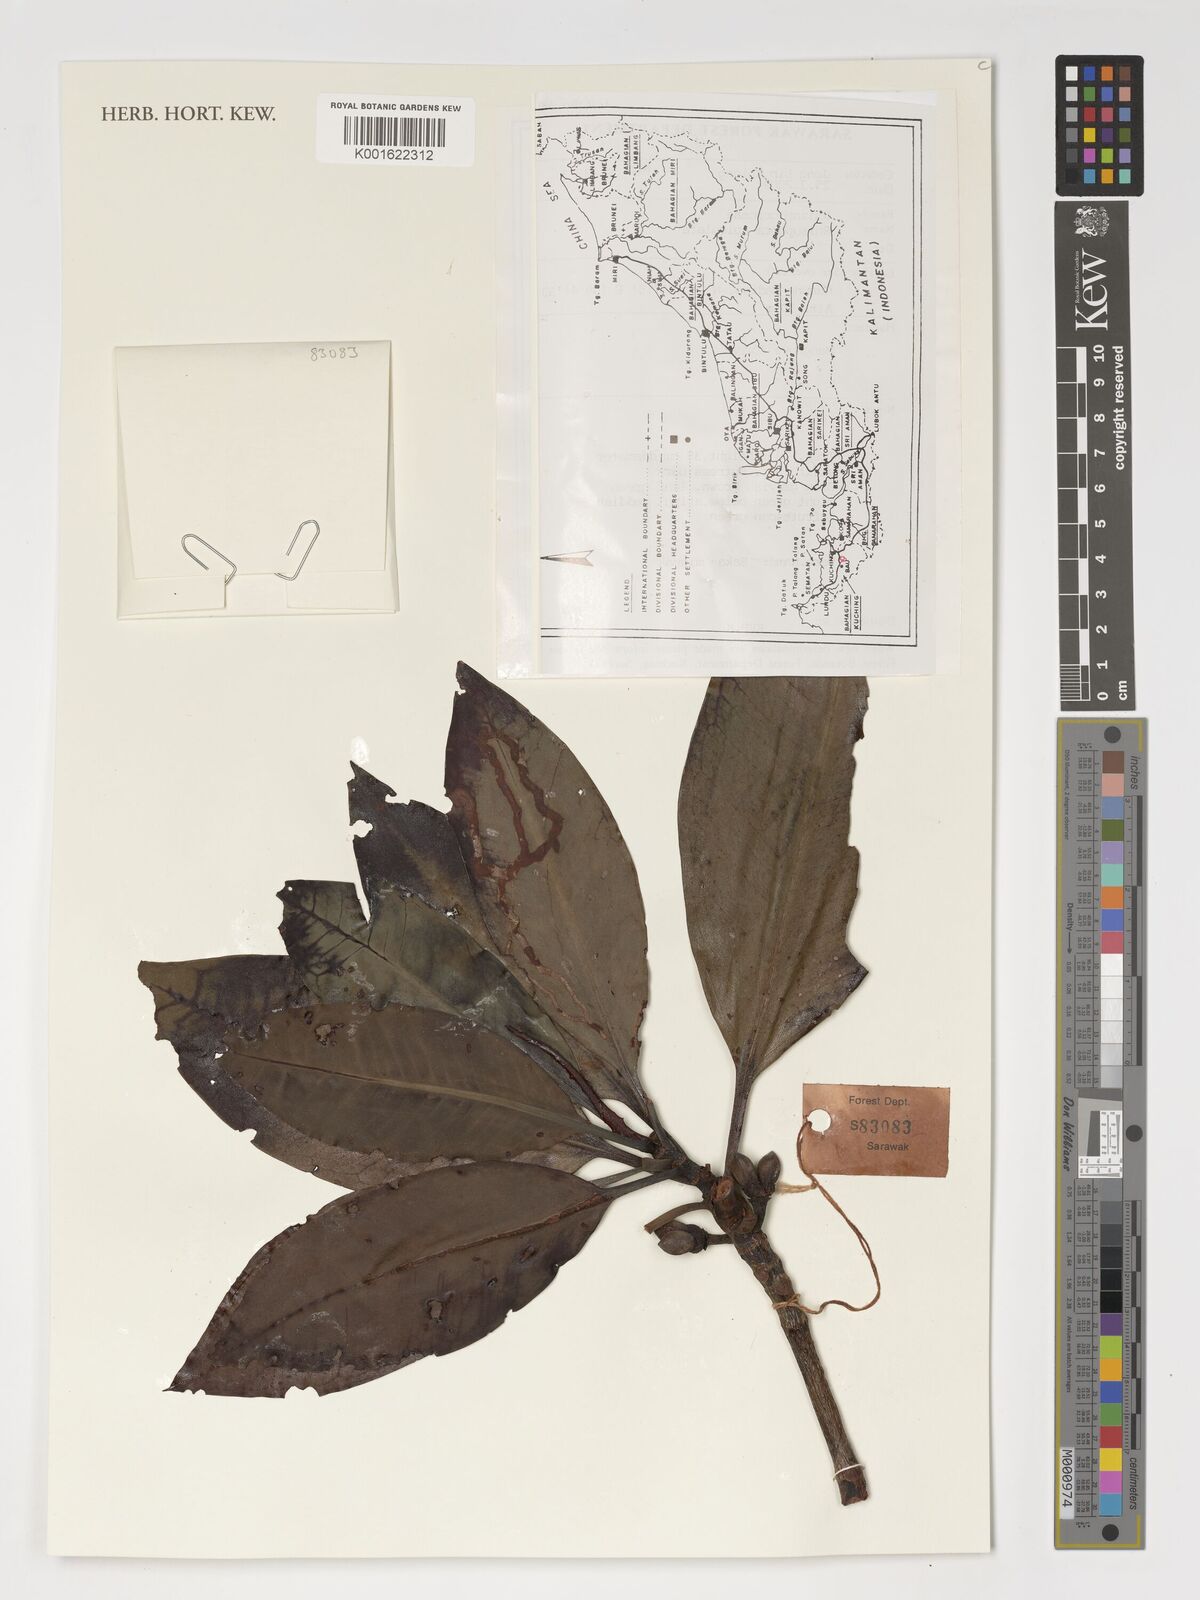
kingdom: Plantae
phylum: Tracheophyta
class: Magnoliopsida
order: Malpighiales
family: Rhizophoraceae
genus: Rhizophora
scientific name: Rhizophora apiculata
